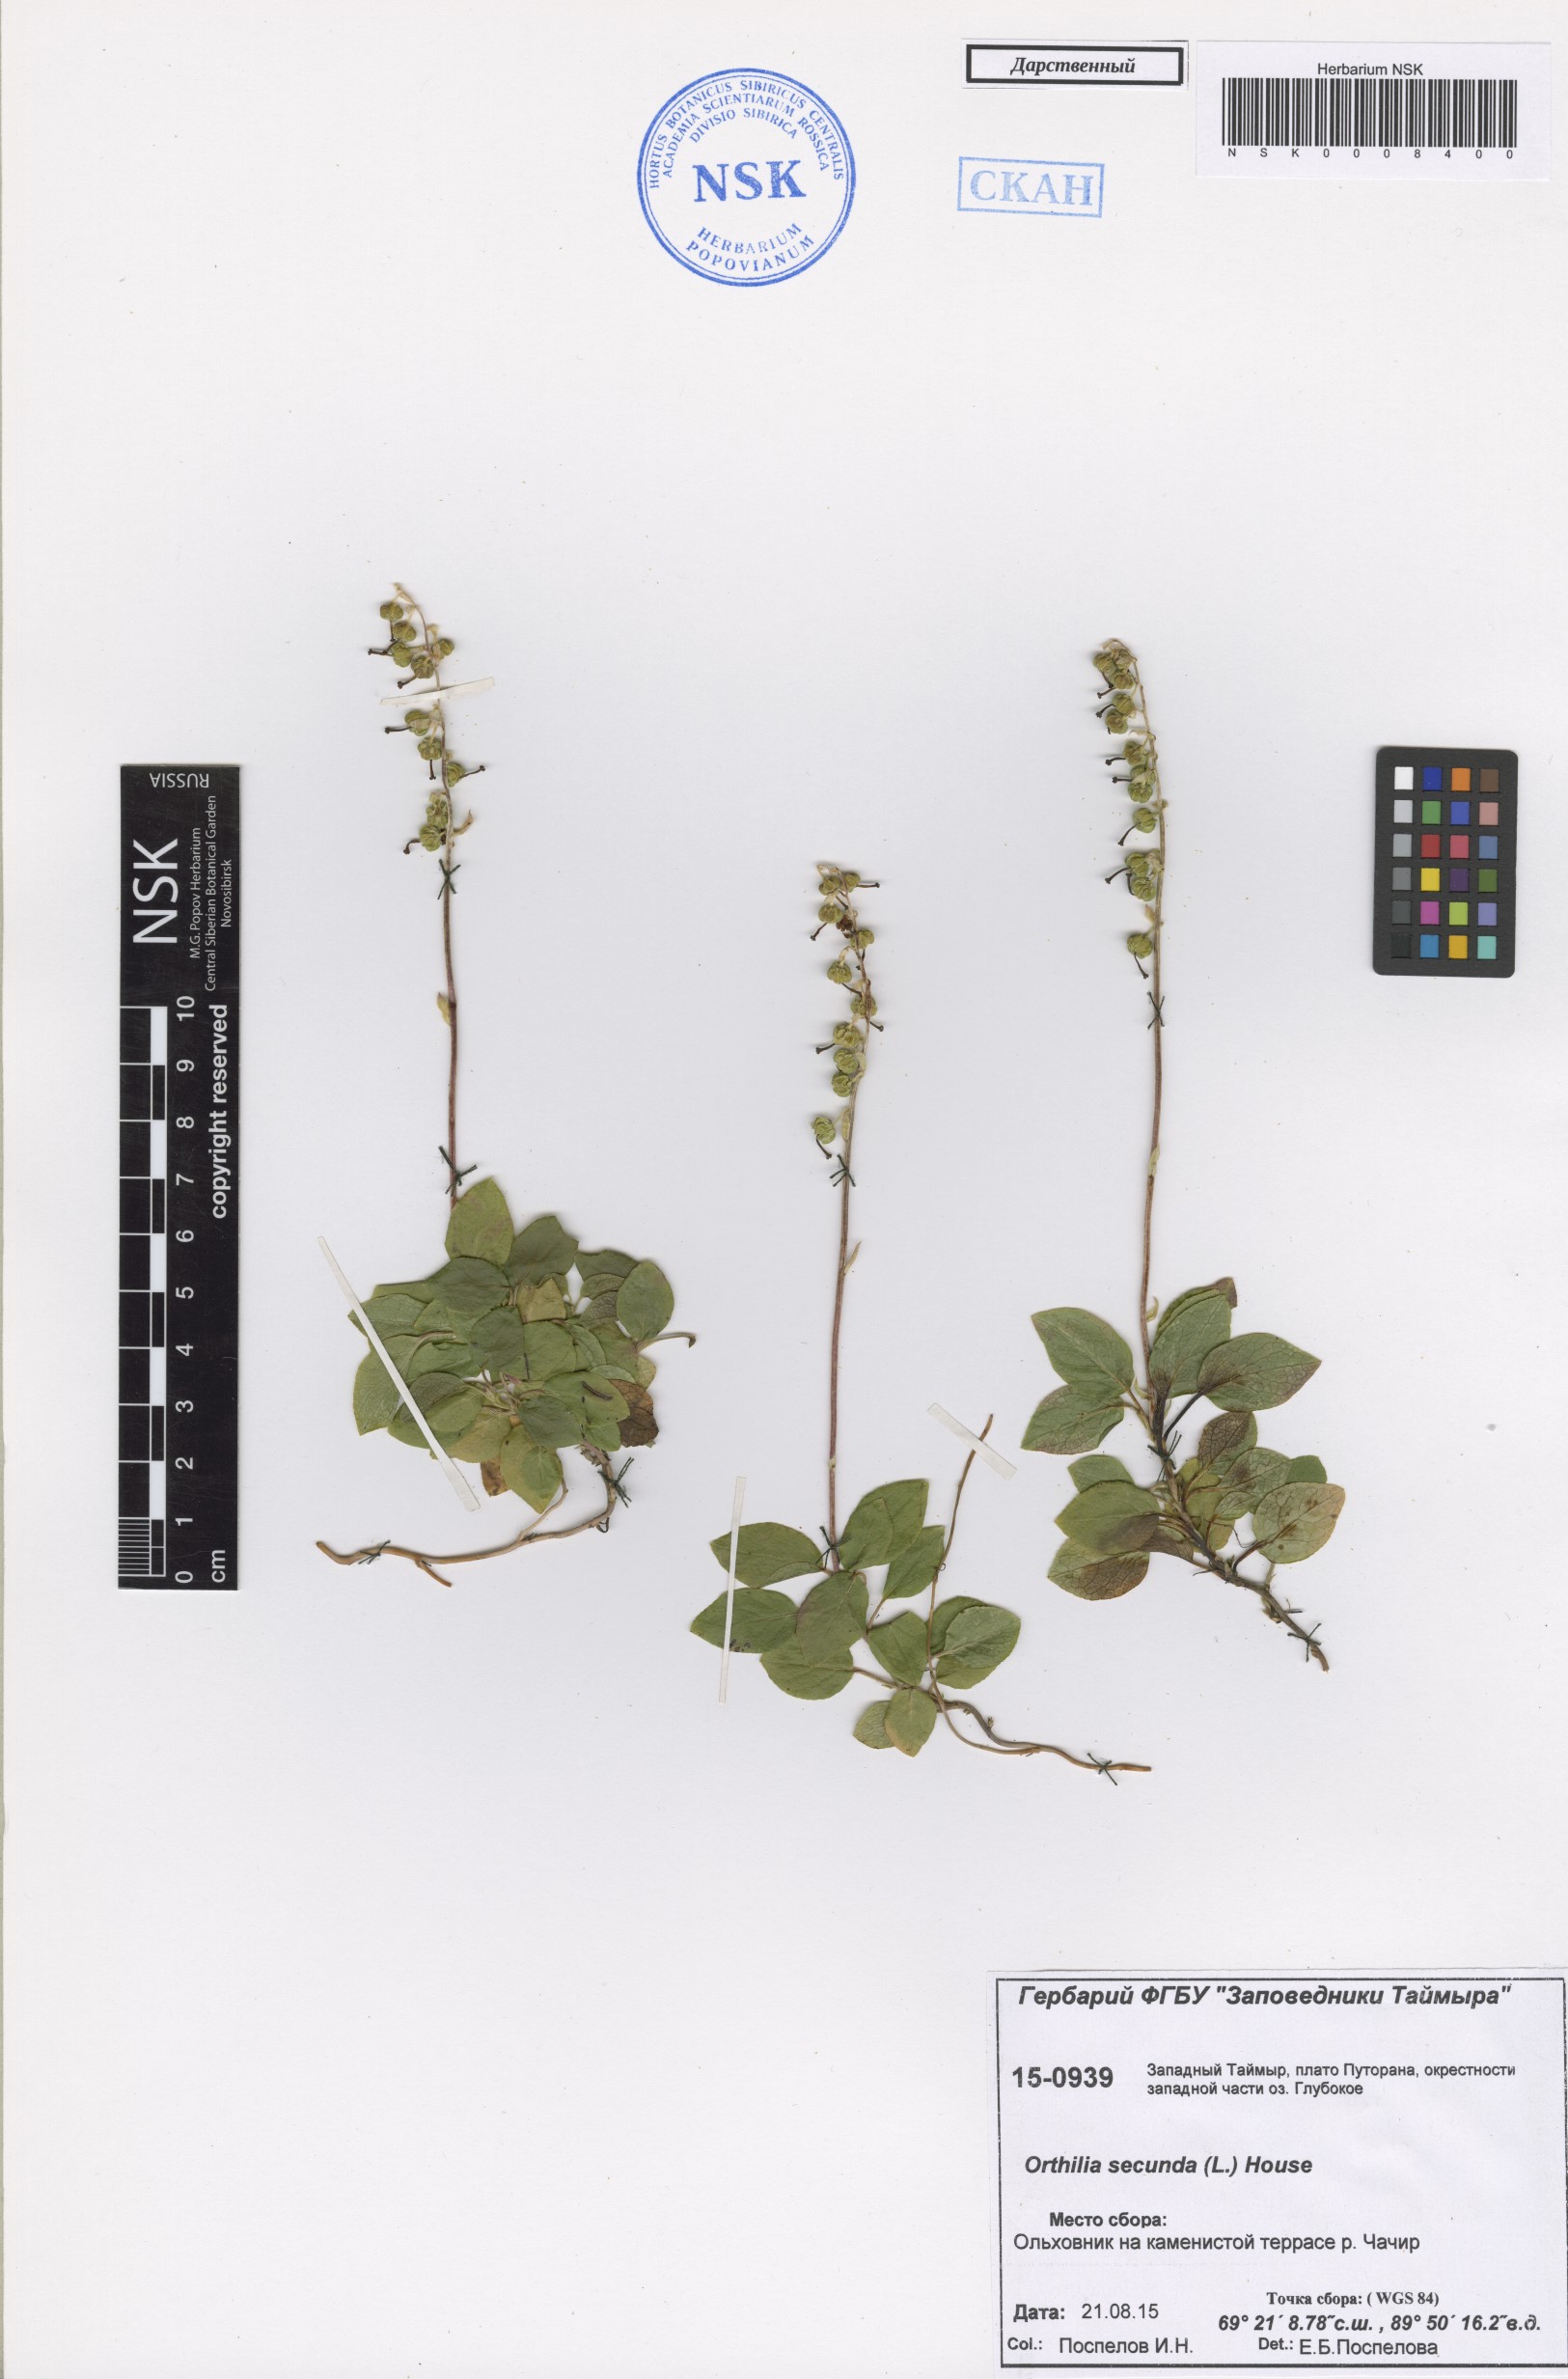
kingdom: Plantae
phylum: Tracheophyta
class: Magnoliopsida
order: Ericales
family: Ericaceae
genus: Orthilia
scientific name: Orthilia secunda
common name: One-sided orthilia
